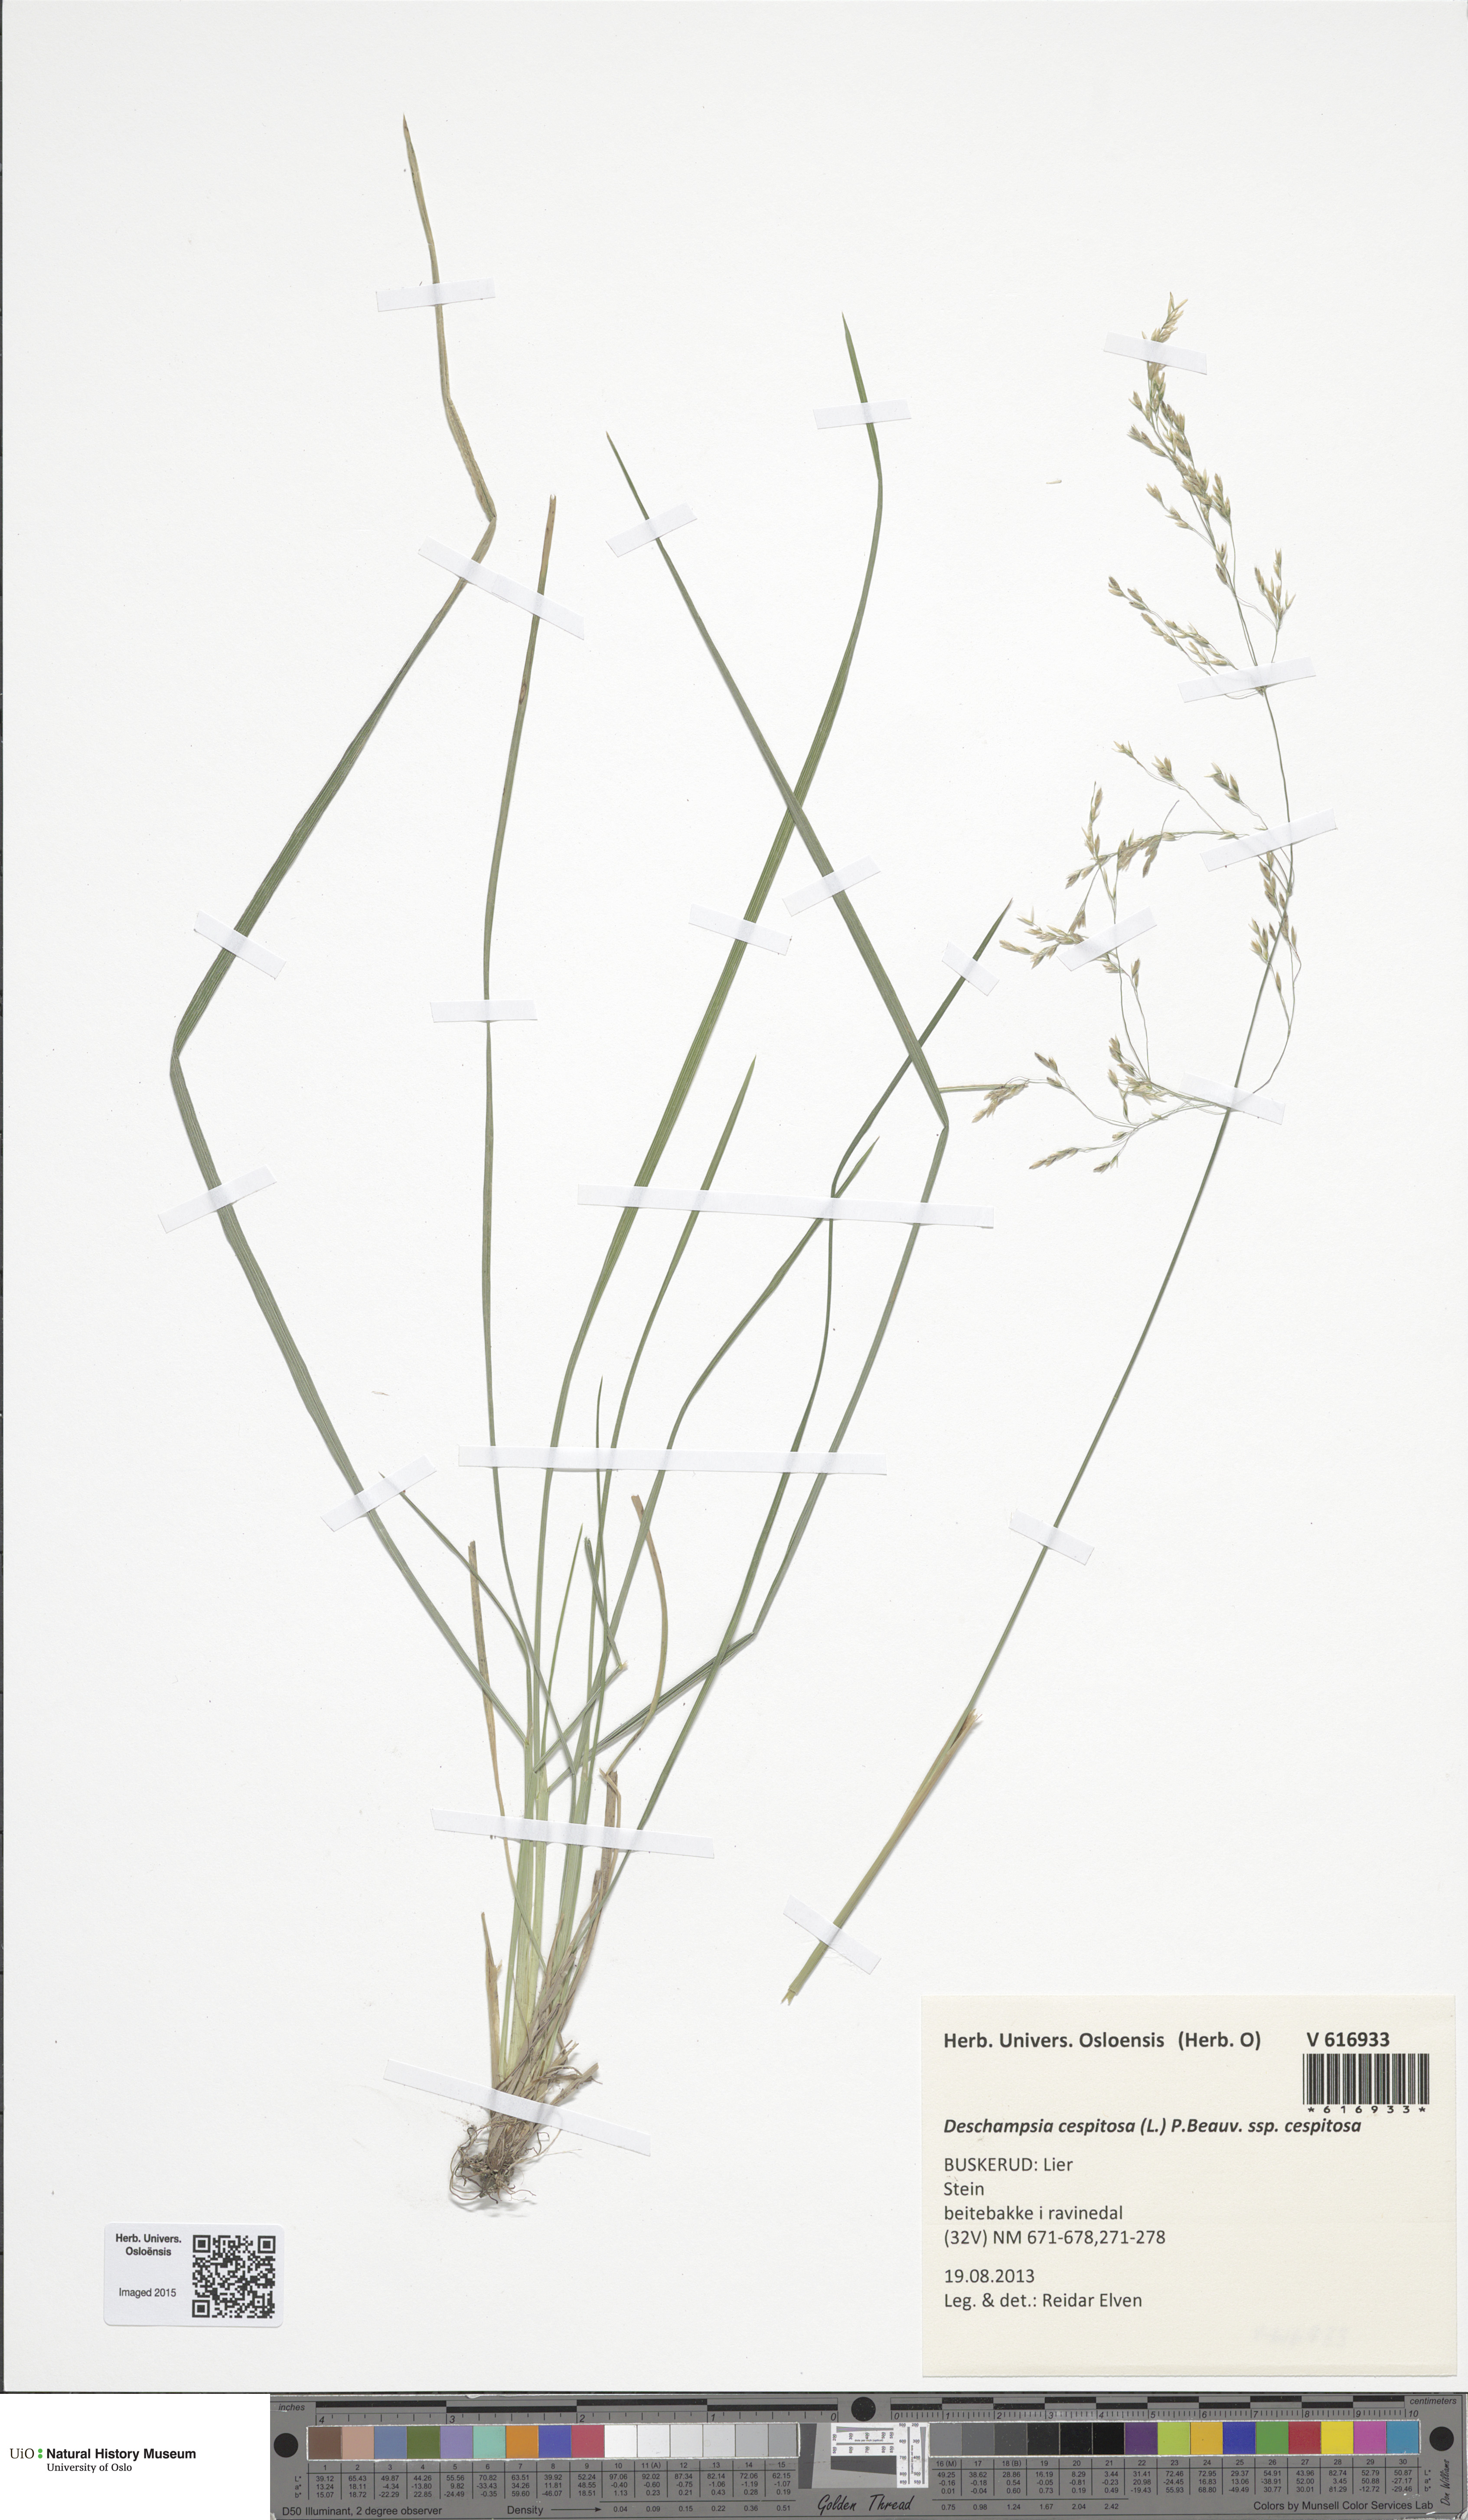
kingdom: Plantae
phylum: Tracheophyta
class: Liliopsida
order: Poales
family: Poaceae
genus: Deschampsia
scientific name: Deschampsia cespitosa
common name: Tufted hair-grass
